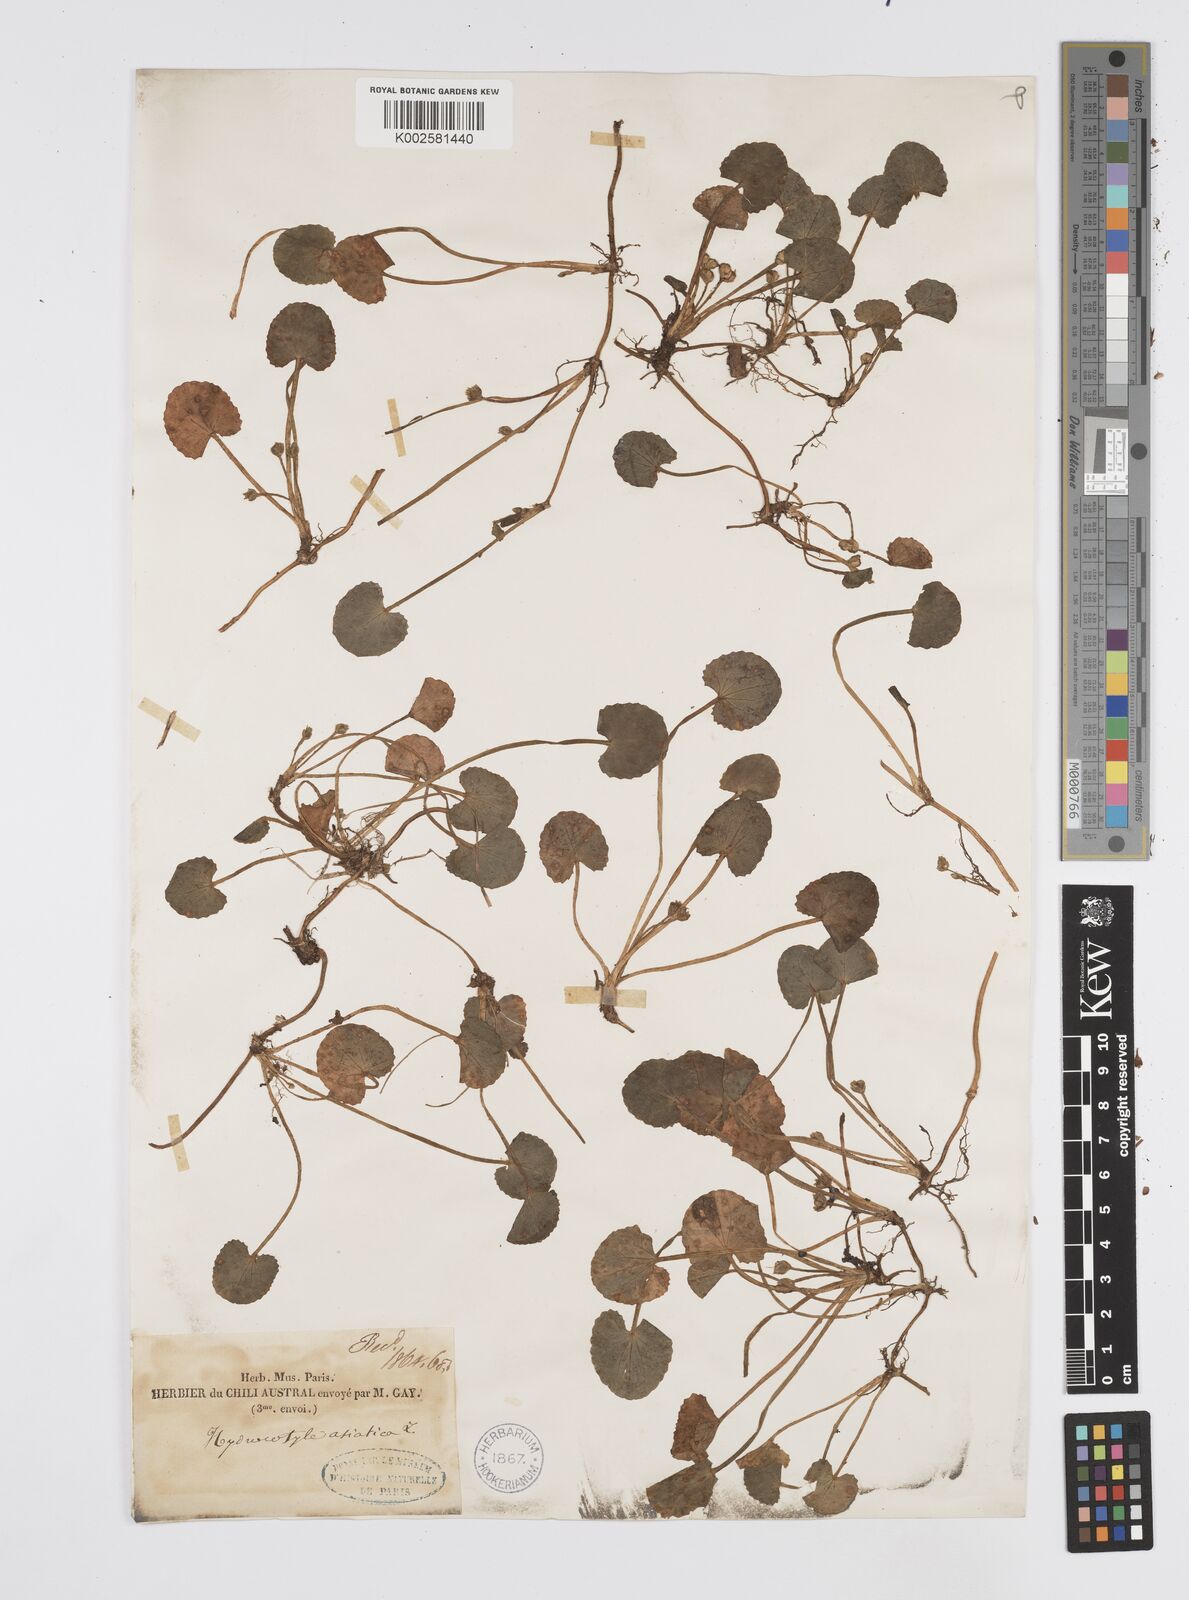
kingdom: Plantae
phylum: Tracheophyta
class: Magnoliopsida
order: Apiales
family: Apiaceae
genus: Centella
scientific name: Centella erecta
